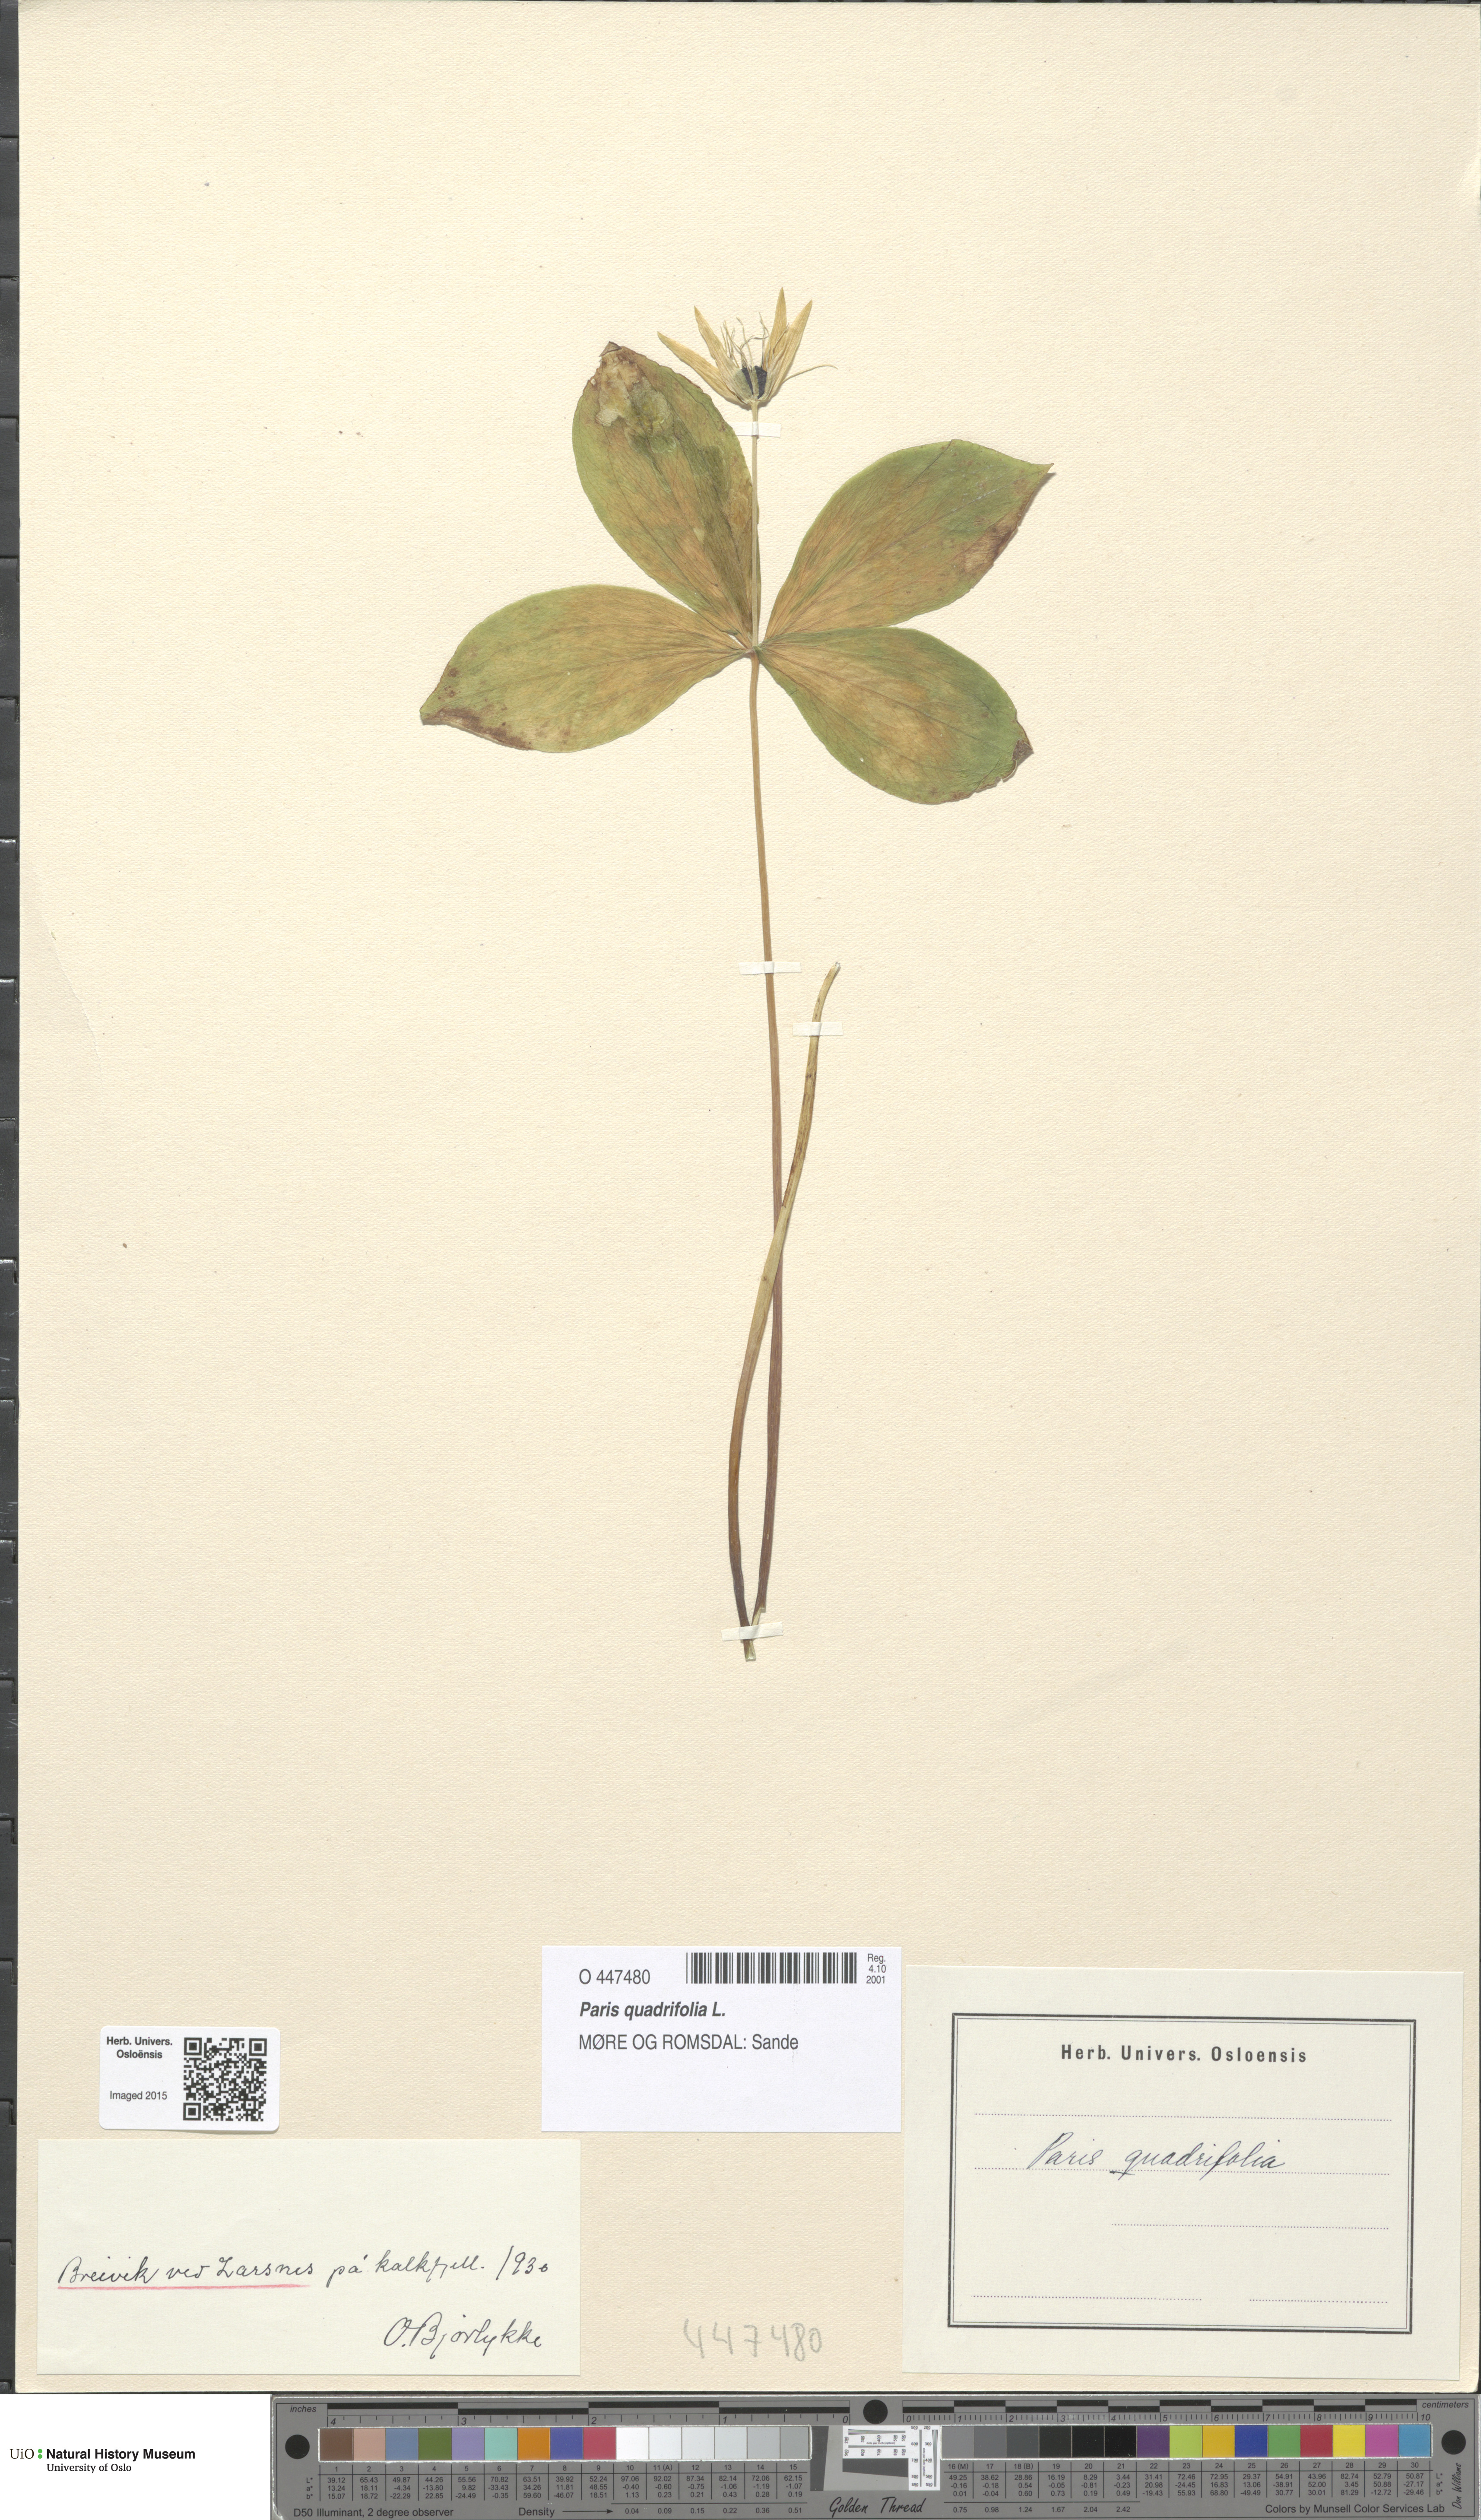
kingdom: Plantae
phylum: Tracheophyta
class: Liliopsida
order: Liliales
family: Melanthiaceae
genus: Paris
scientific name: Paris quadrifolia
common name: Herb-paris
